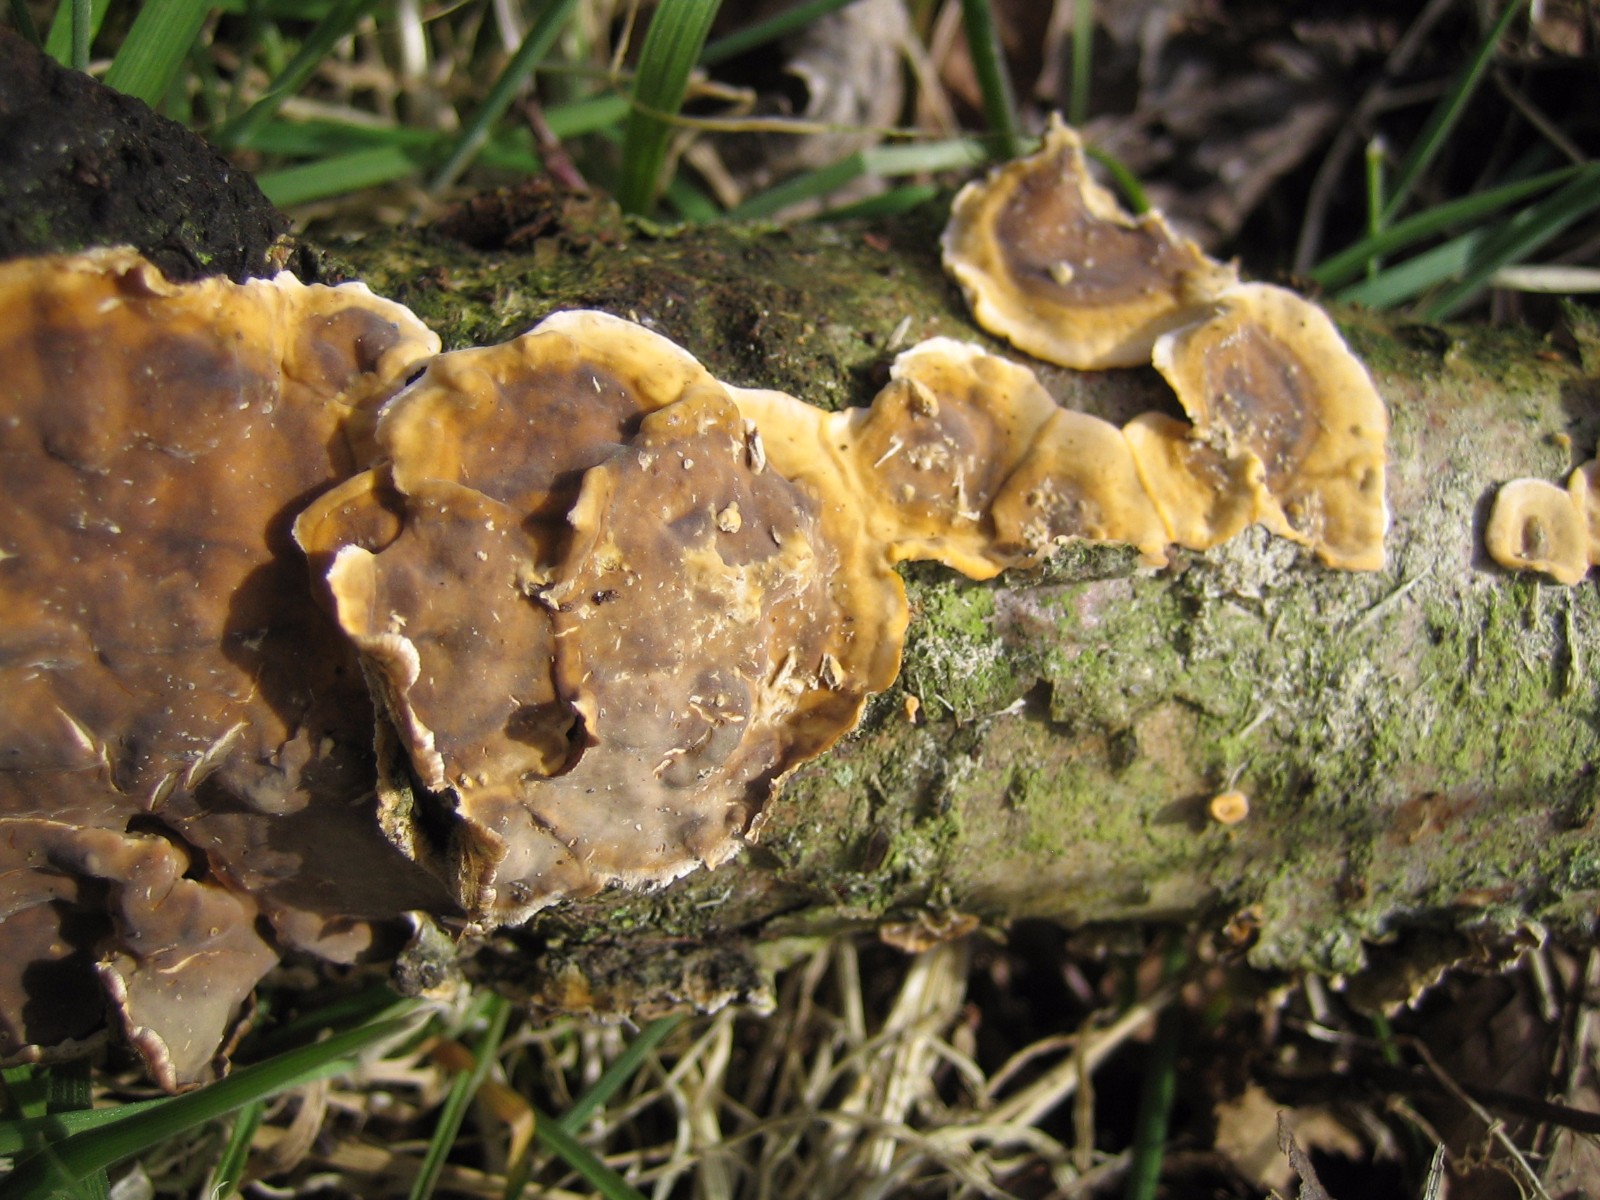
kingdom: Fungi
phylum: Basidiomycota
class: Agaricomycetes
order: Russulales
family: Stereaceae
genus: Stereum
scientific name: Stereum hirsutum
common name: håret lædersvamp
